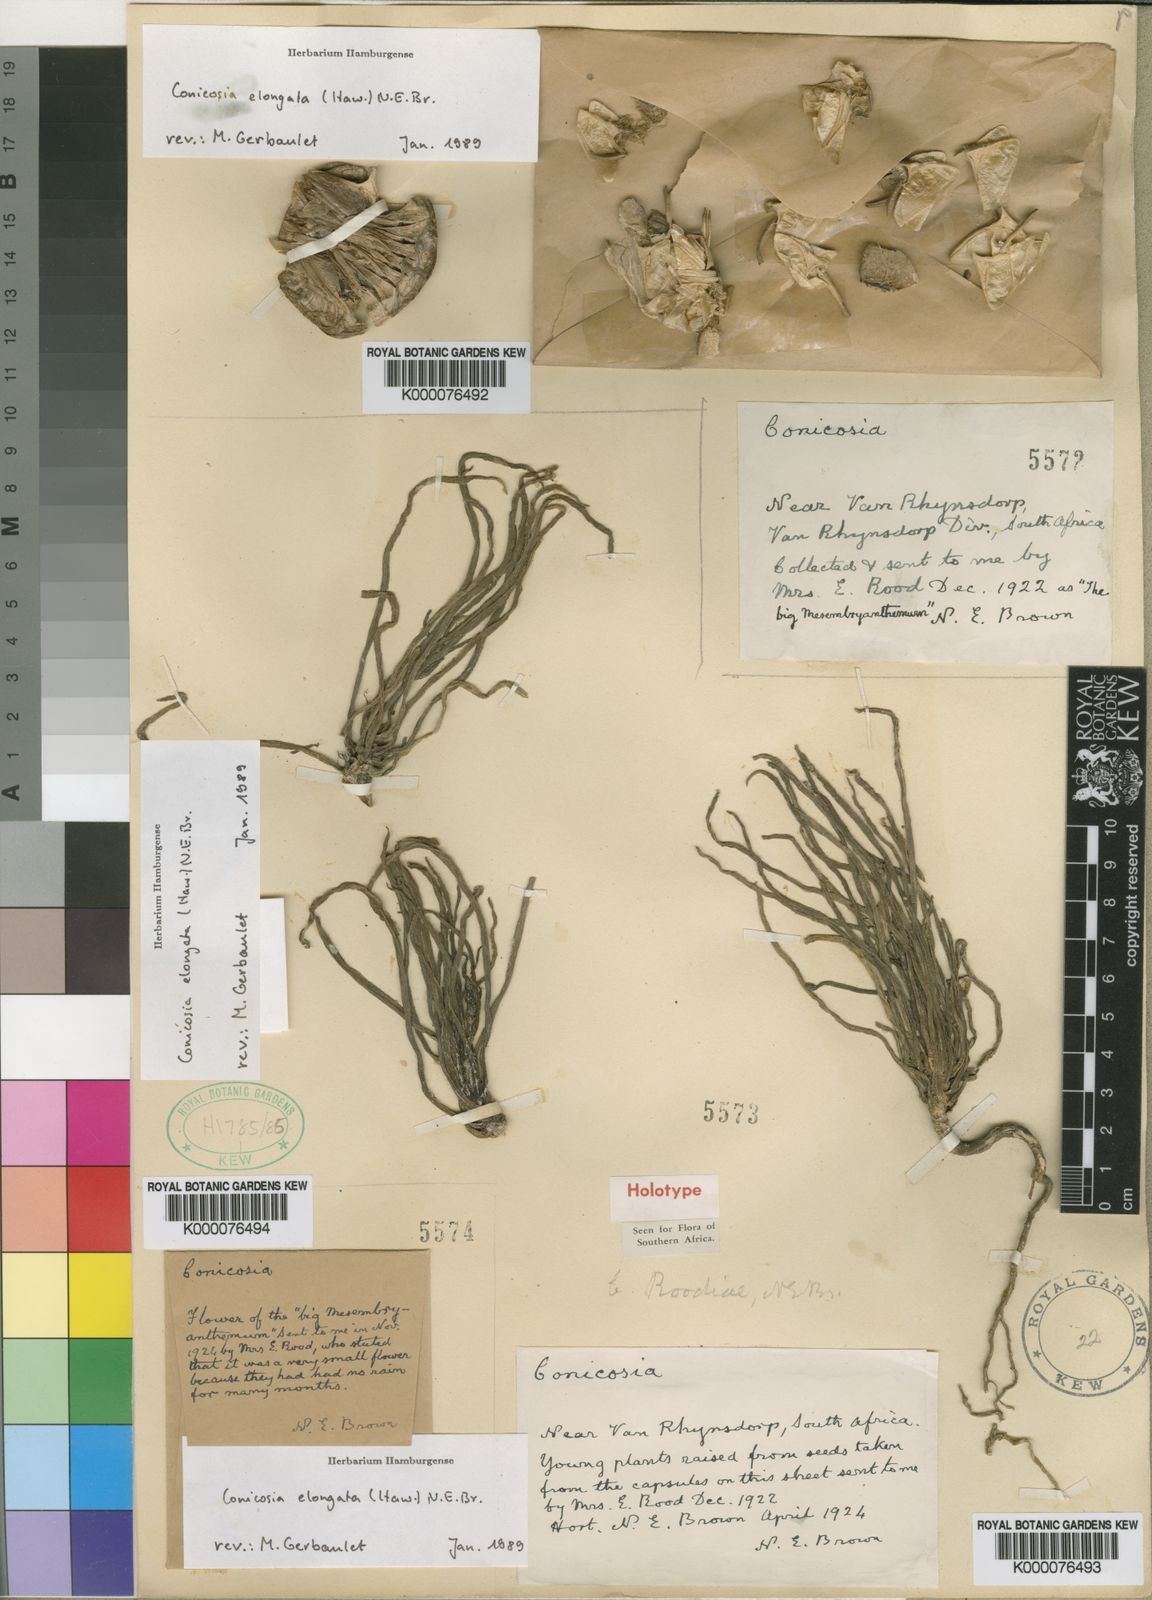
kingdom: Plantae
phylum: Tracheophyta
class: Magnoliopsida
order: Caryophyllales
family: Aizoaceae
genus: Conicosia
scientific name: Conicosia
